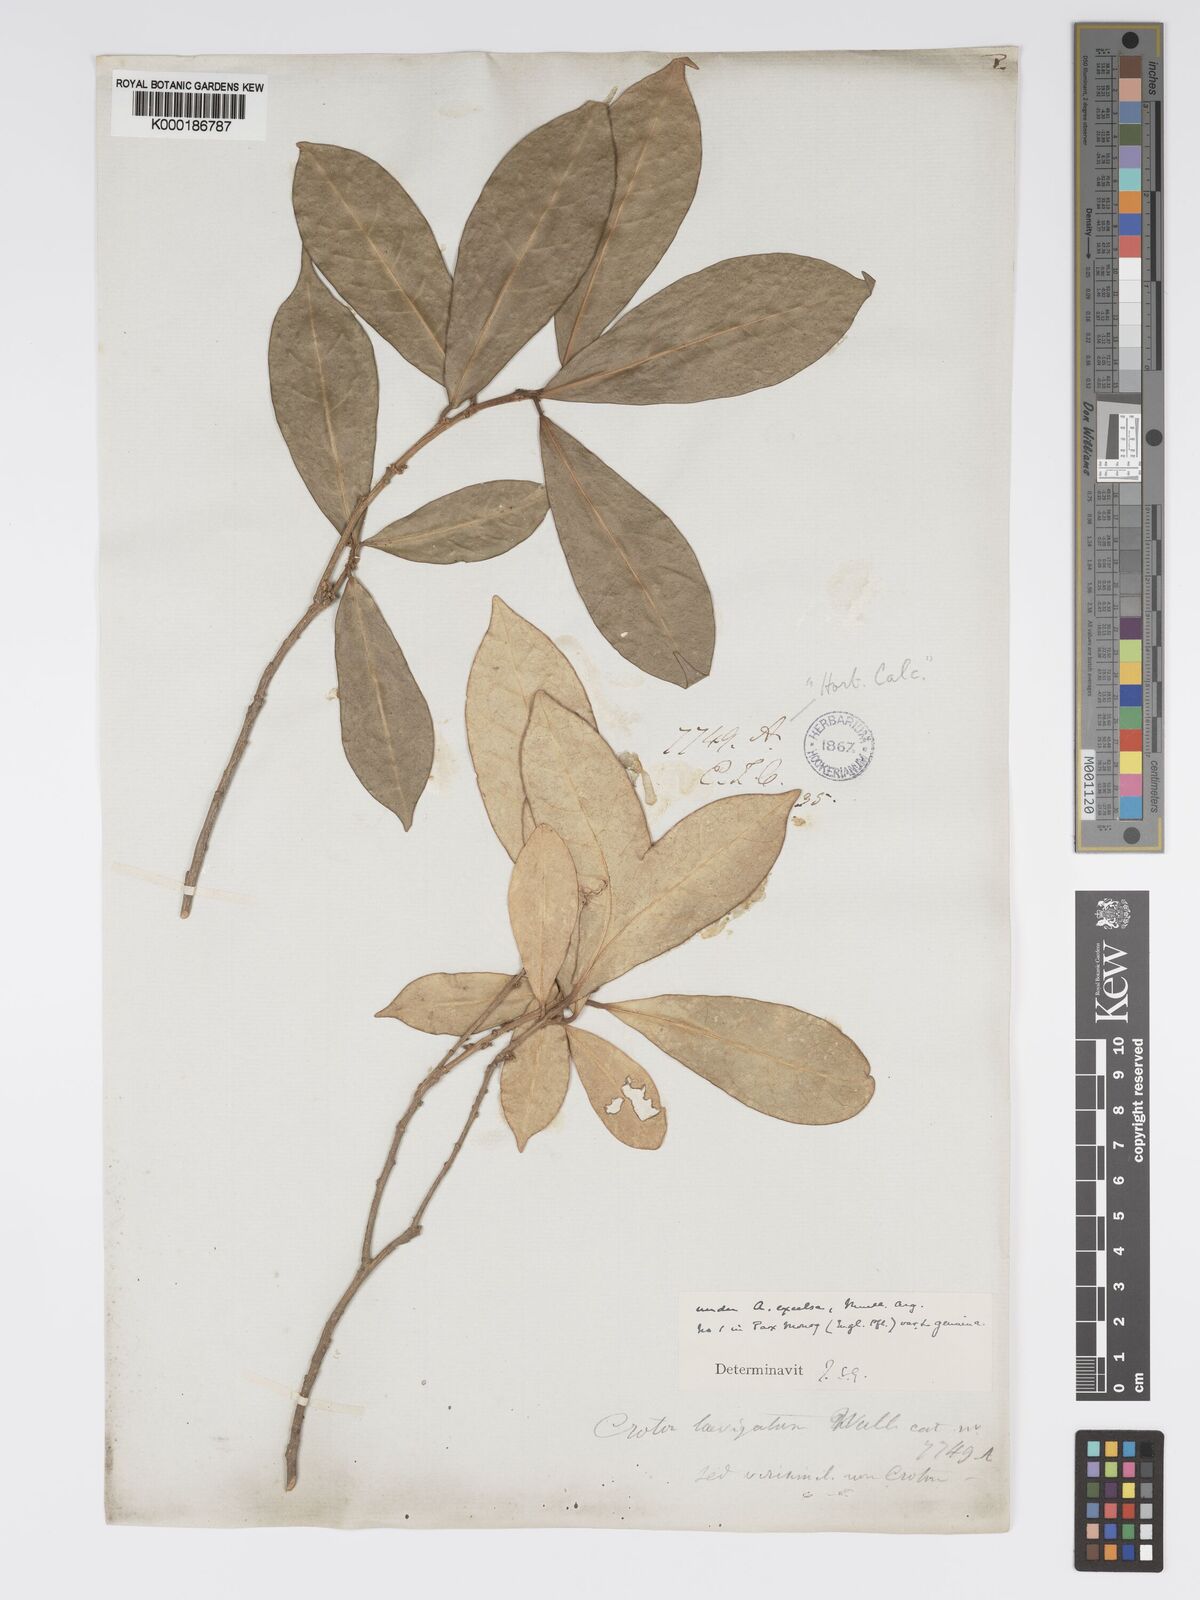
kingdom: Plantae
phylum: Tracheophyta
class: Magnoliopsida
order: Malpighiales
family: Phyllanthaceae
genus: Actephila
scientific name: Actephila excelsa
